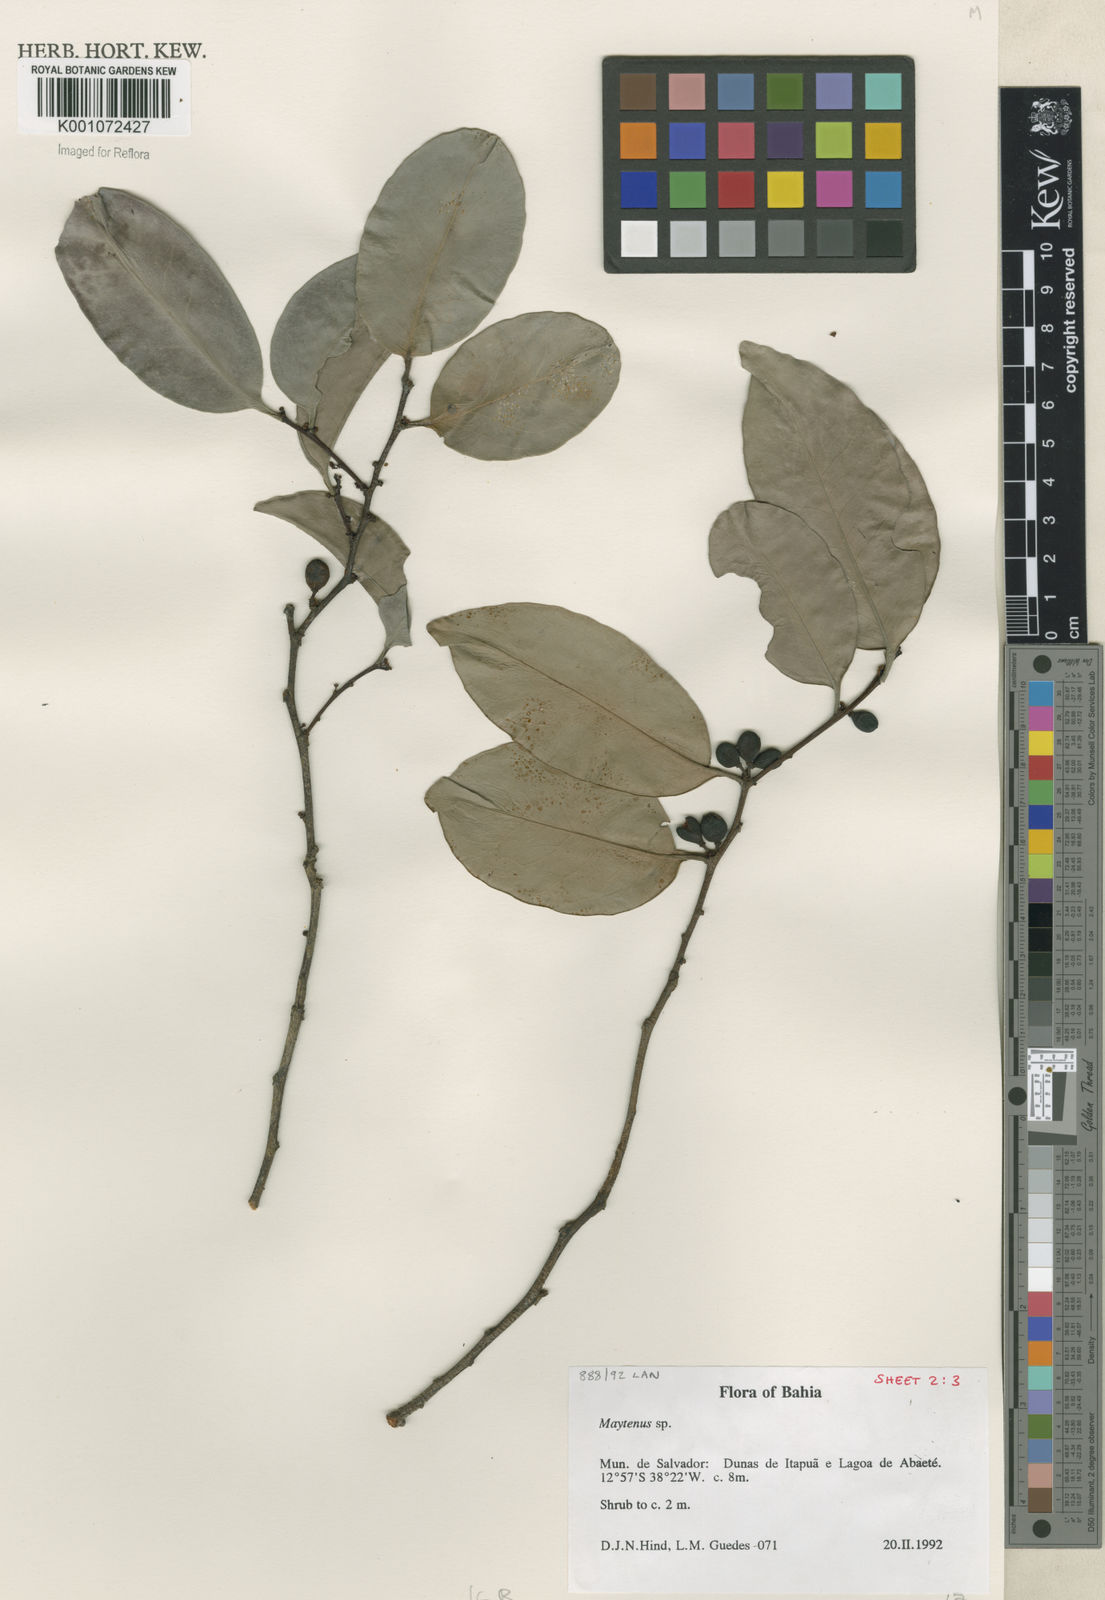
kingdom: Plantae
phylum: Tracheophyta
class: Magnoliopsida
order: Celastrales
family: Celastraceae
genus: Maytenus
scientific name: Maytenus
